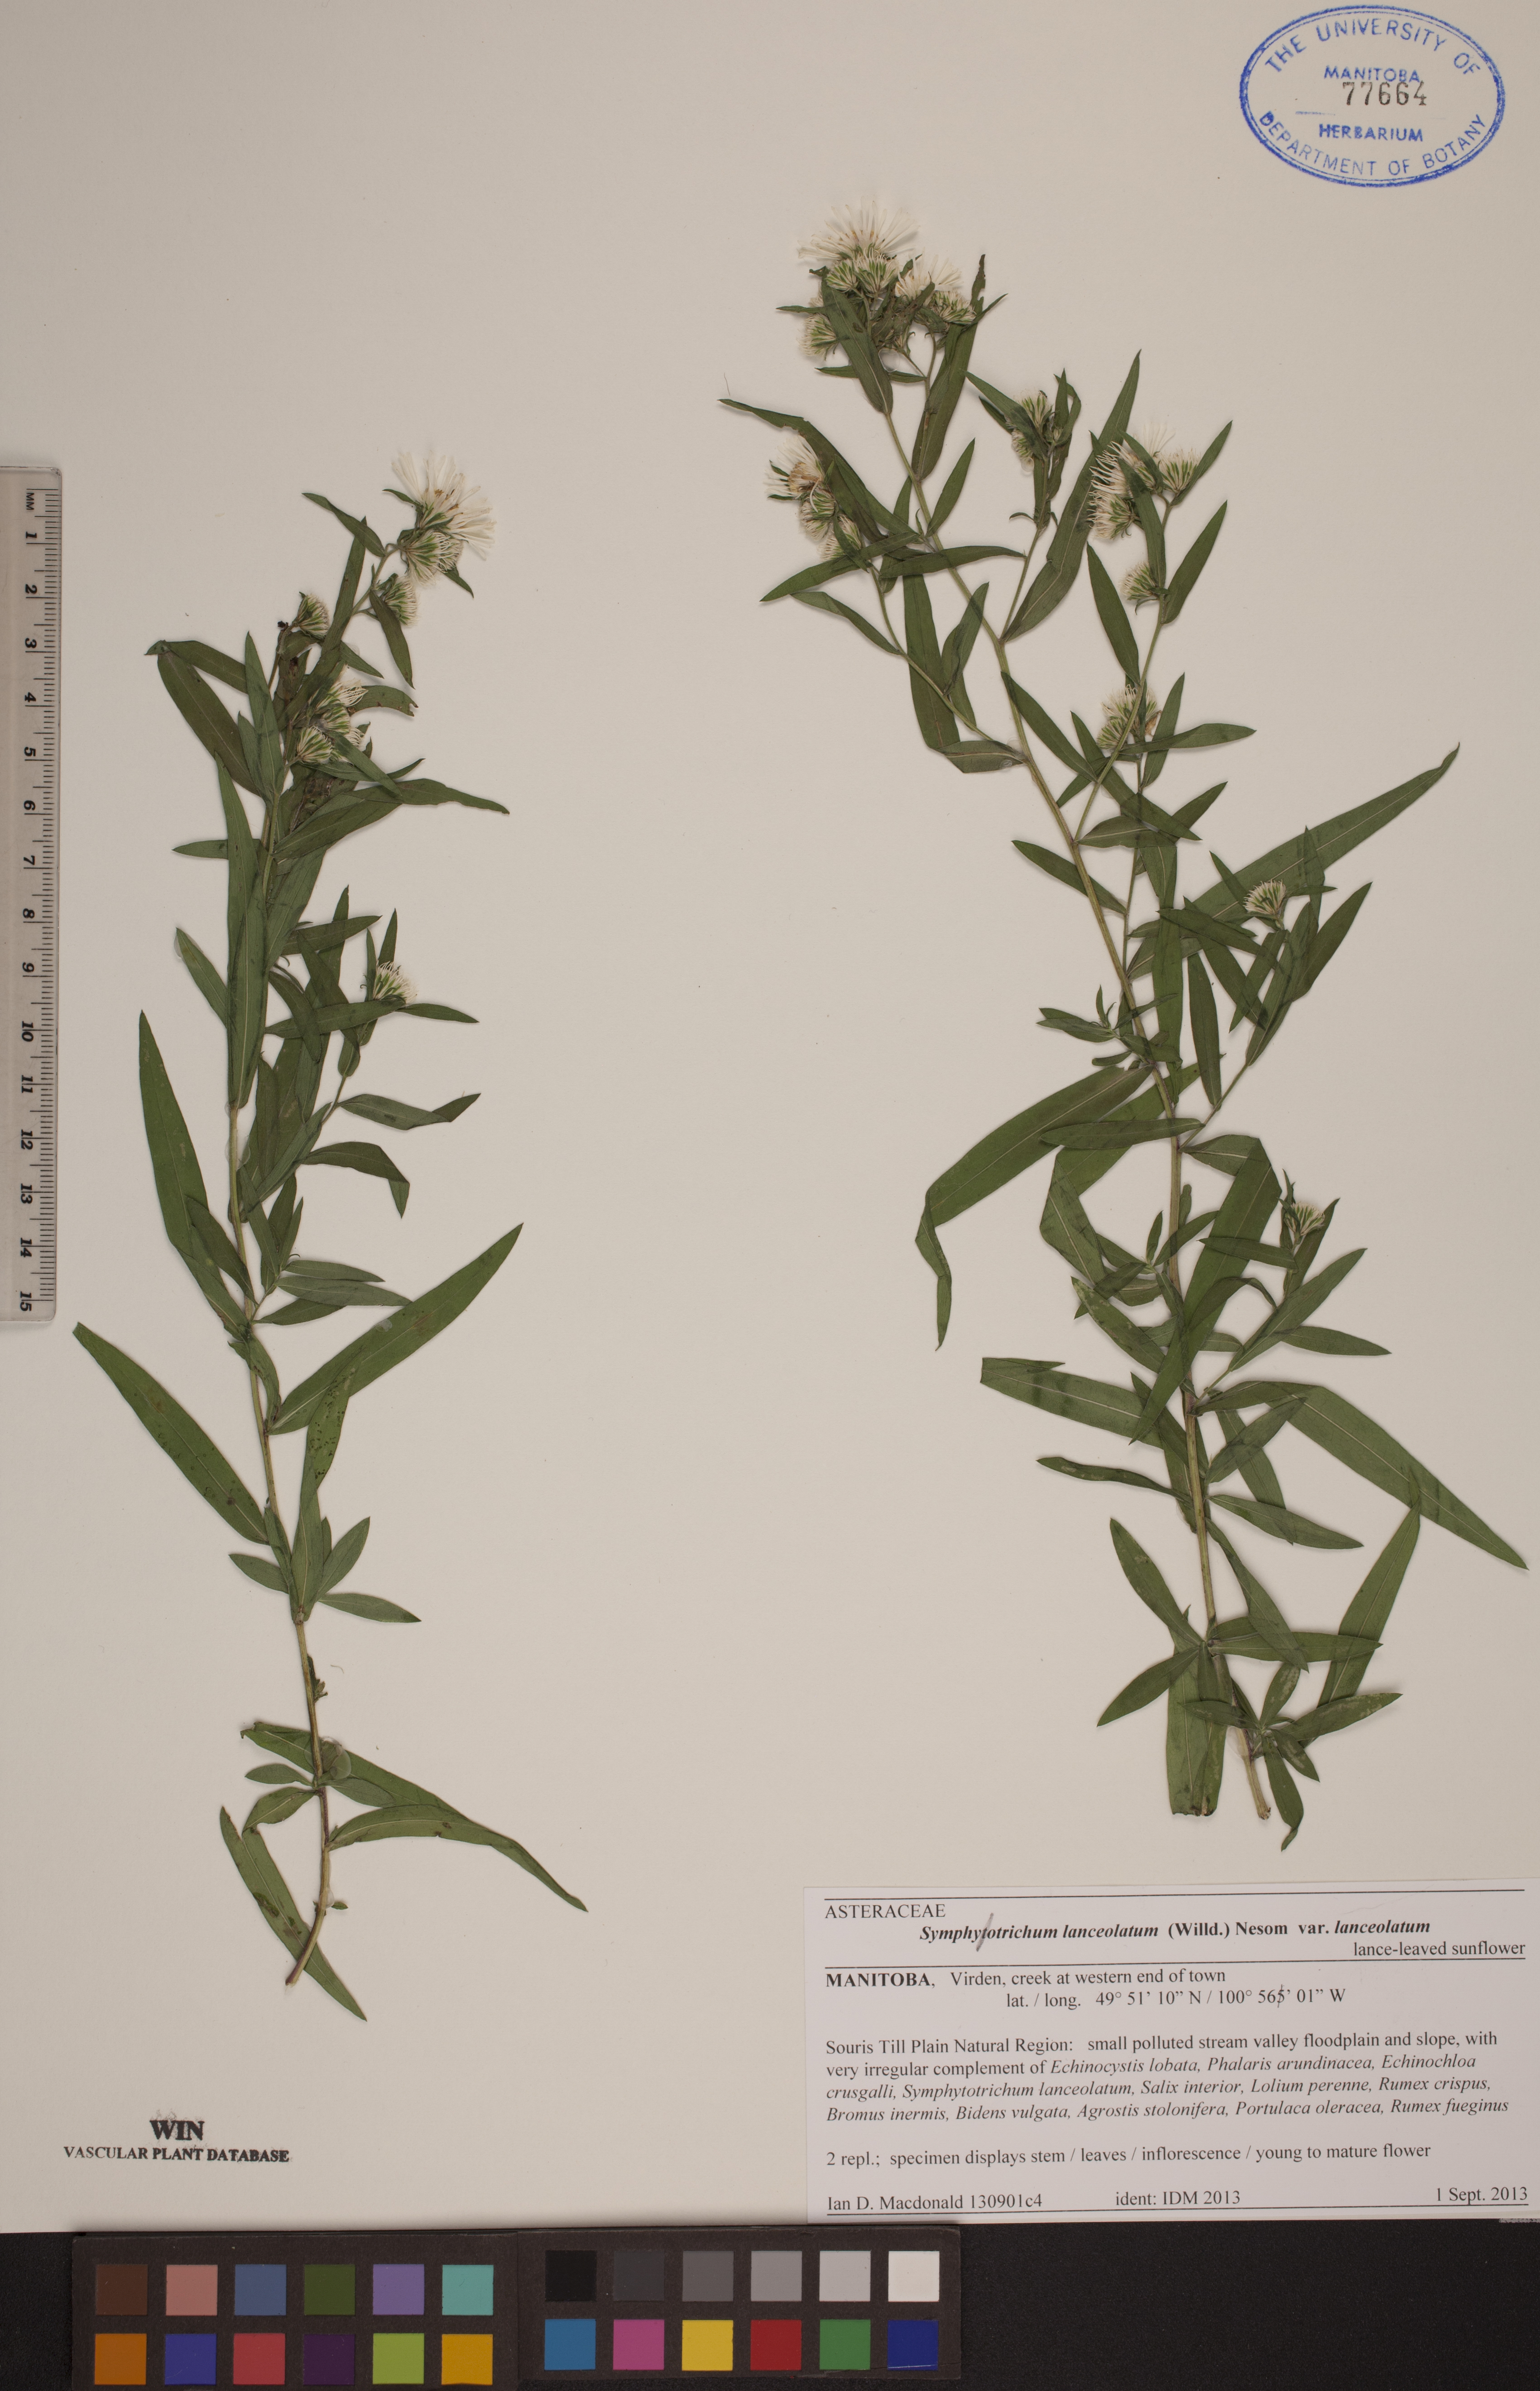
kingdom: Plantae
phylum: Tracheophyta
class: Magnoliopsida
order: Asterales
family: Asteraceae
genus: Symphyotrichum
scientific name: Symphyotrichum lanceolatum
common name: Panicled aster
